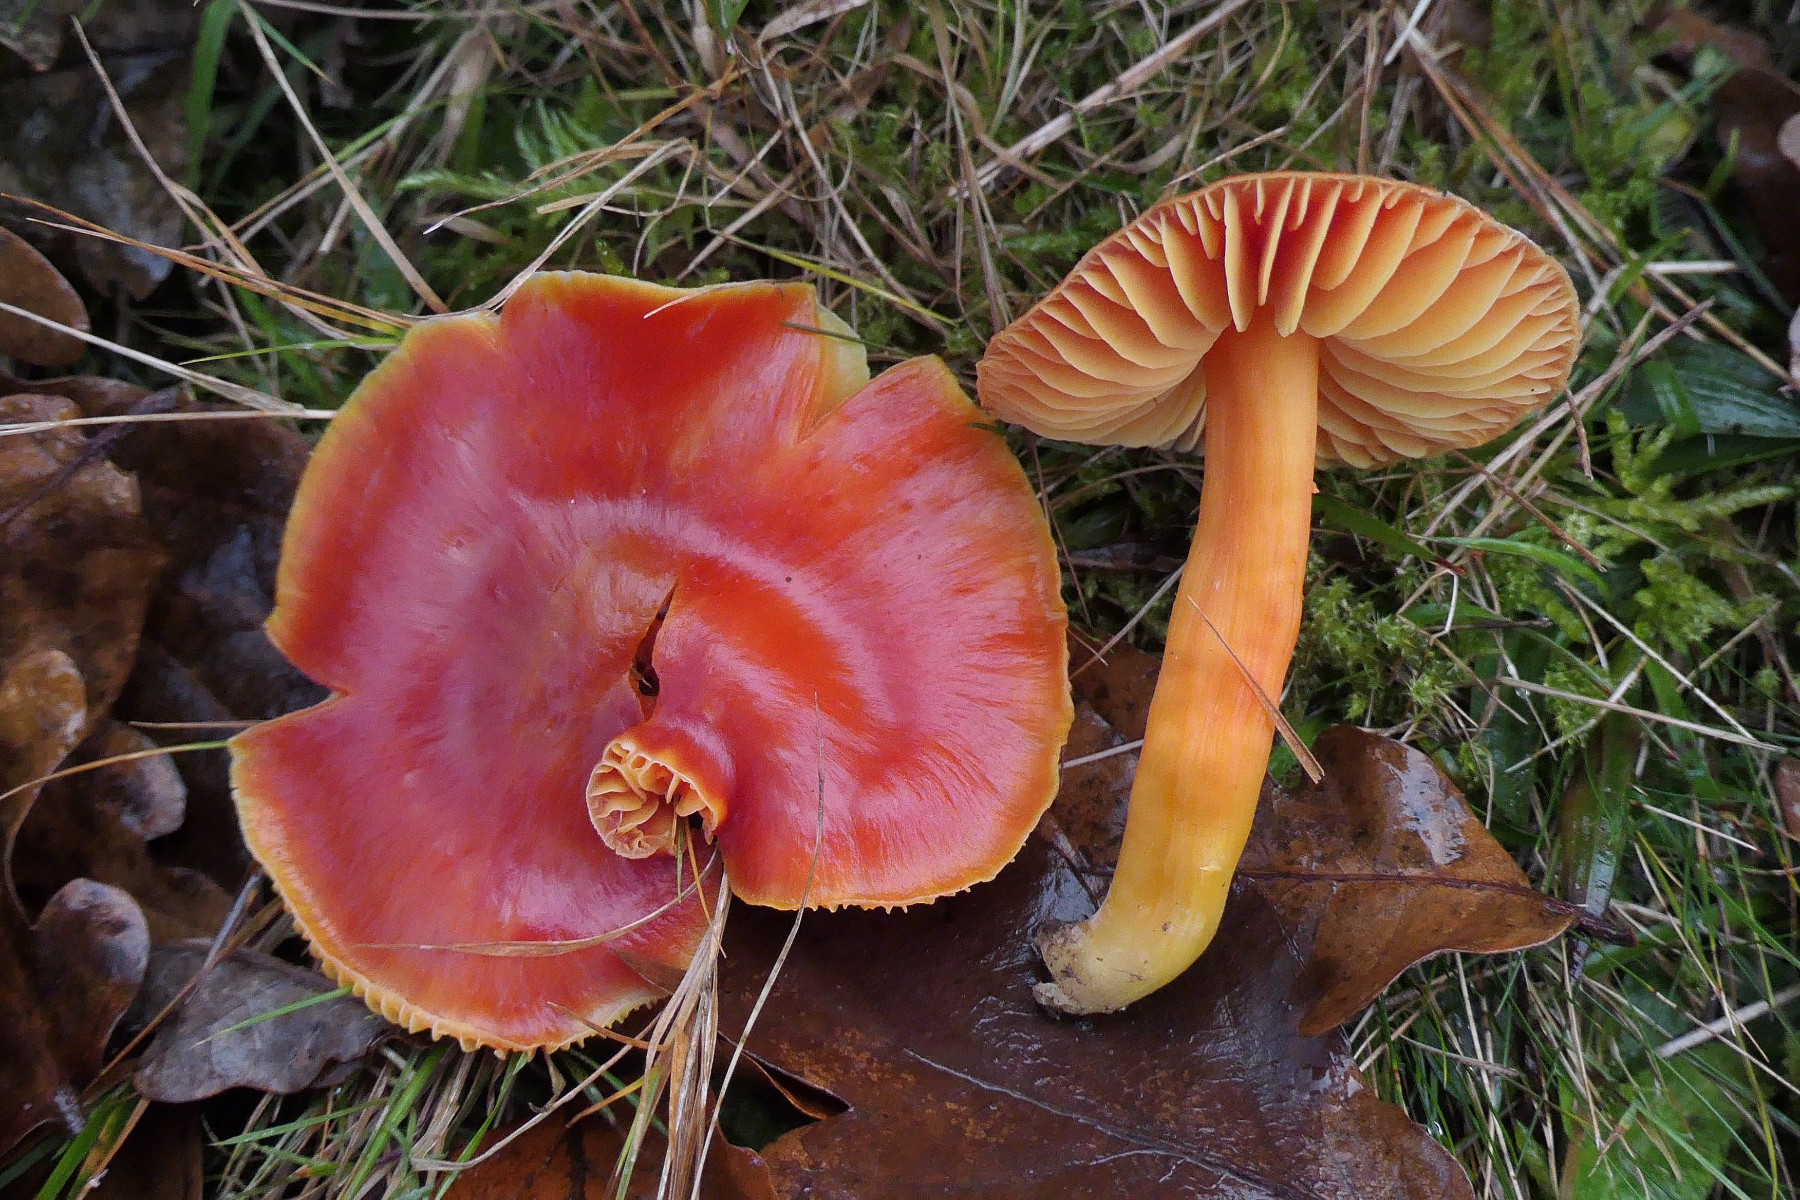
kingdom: Fungi
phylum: Basidiomycota
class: Agaricomycetes
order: Agaricales
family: Hygrophoraceae
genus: Hygrocybe
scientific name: Hygrocybe splendidissima
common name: knaldrød vokshat
